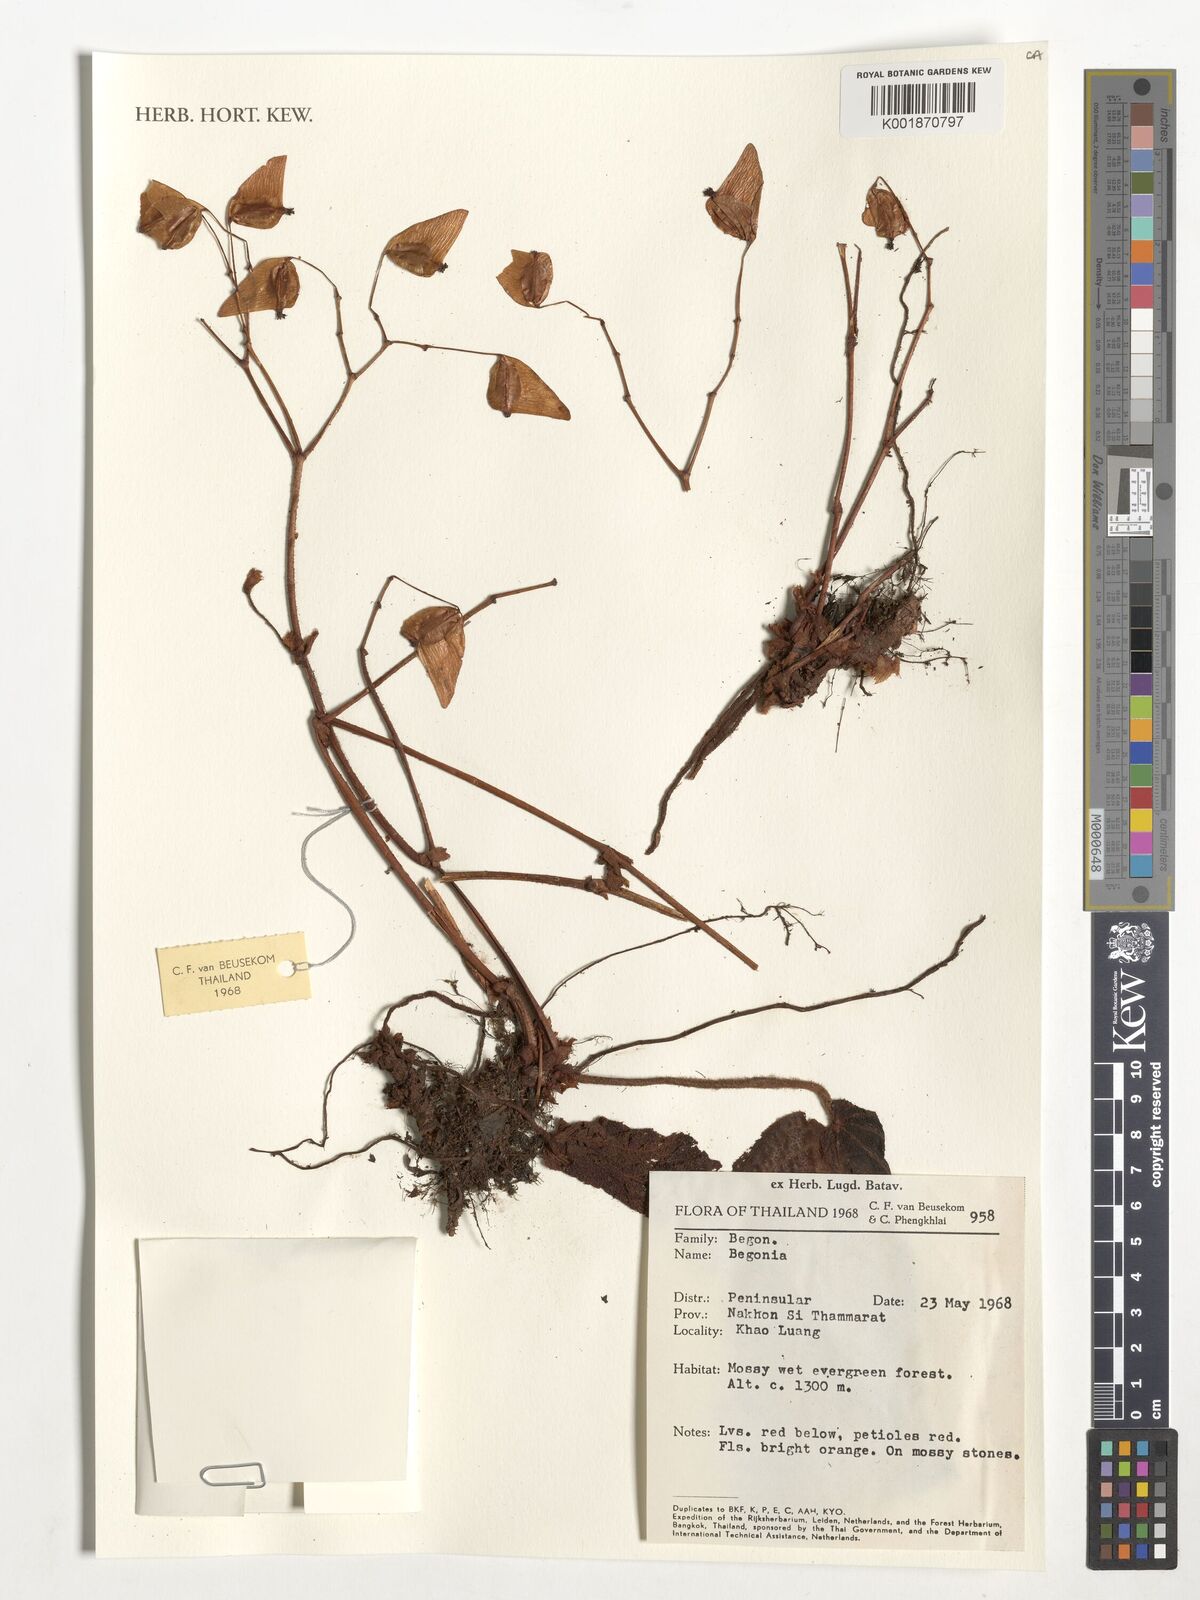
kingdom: Plantae
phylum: Tracheophyta
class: Magnoliopsida
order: Cucurbitales
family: Begoniaceae
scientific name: Begoniaceae
